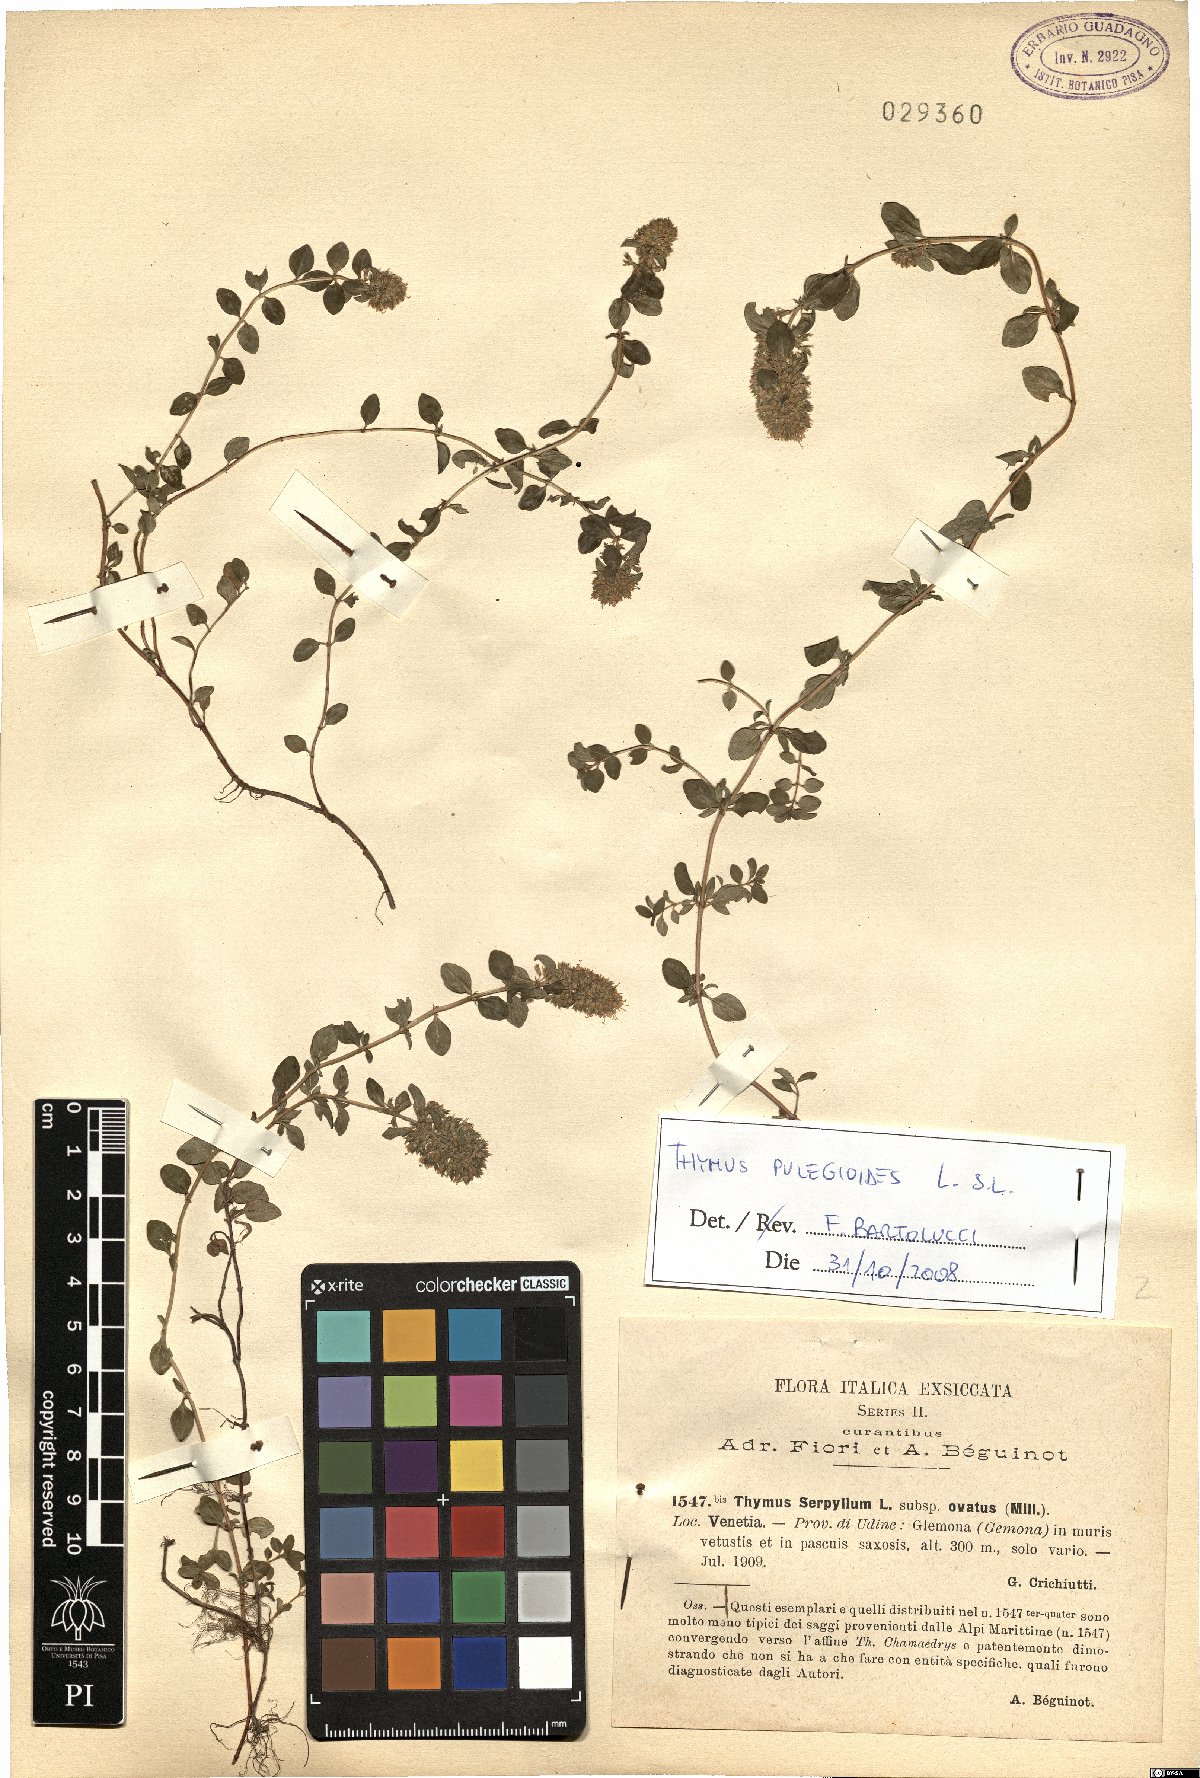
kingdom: Plantae
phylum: Tracheophyta
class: Magnoliopsida
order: Lamiales
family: Lamiaceae
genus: Thymus
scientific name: Thymus pulegioides
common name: Large thyme
